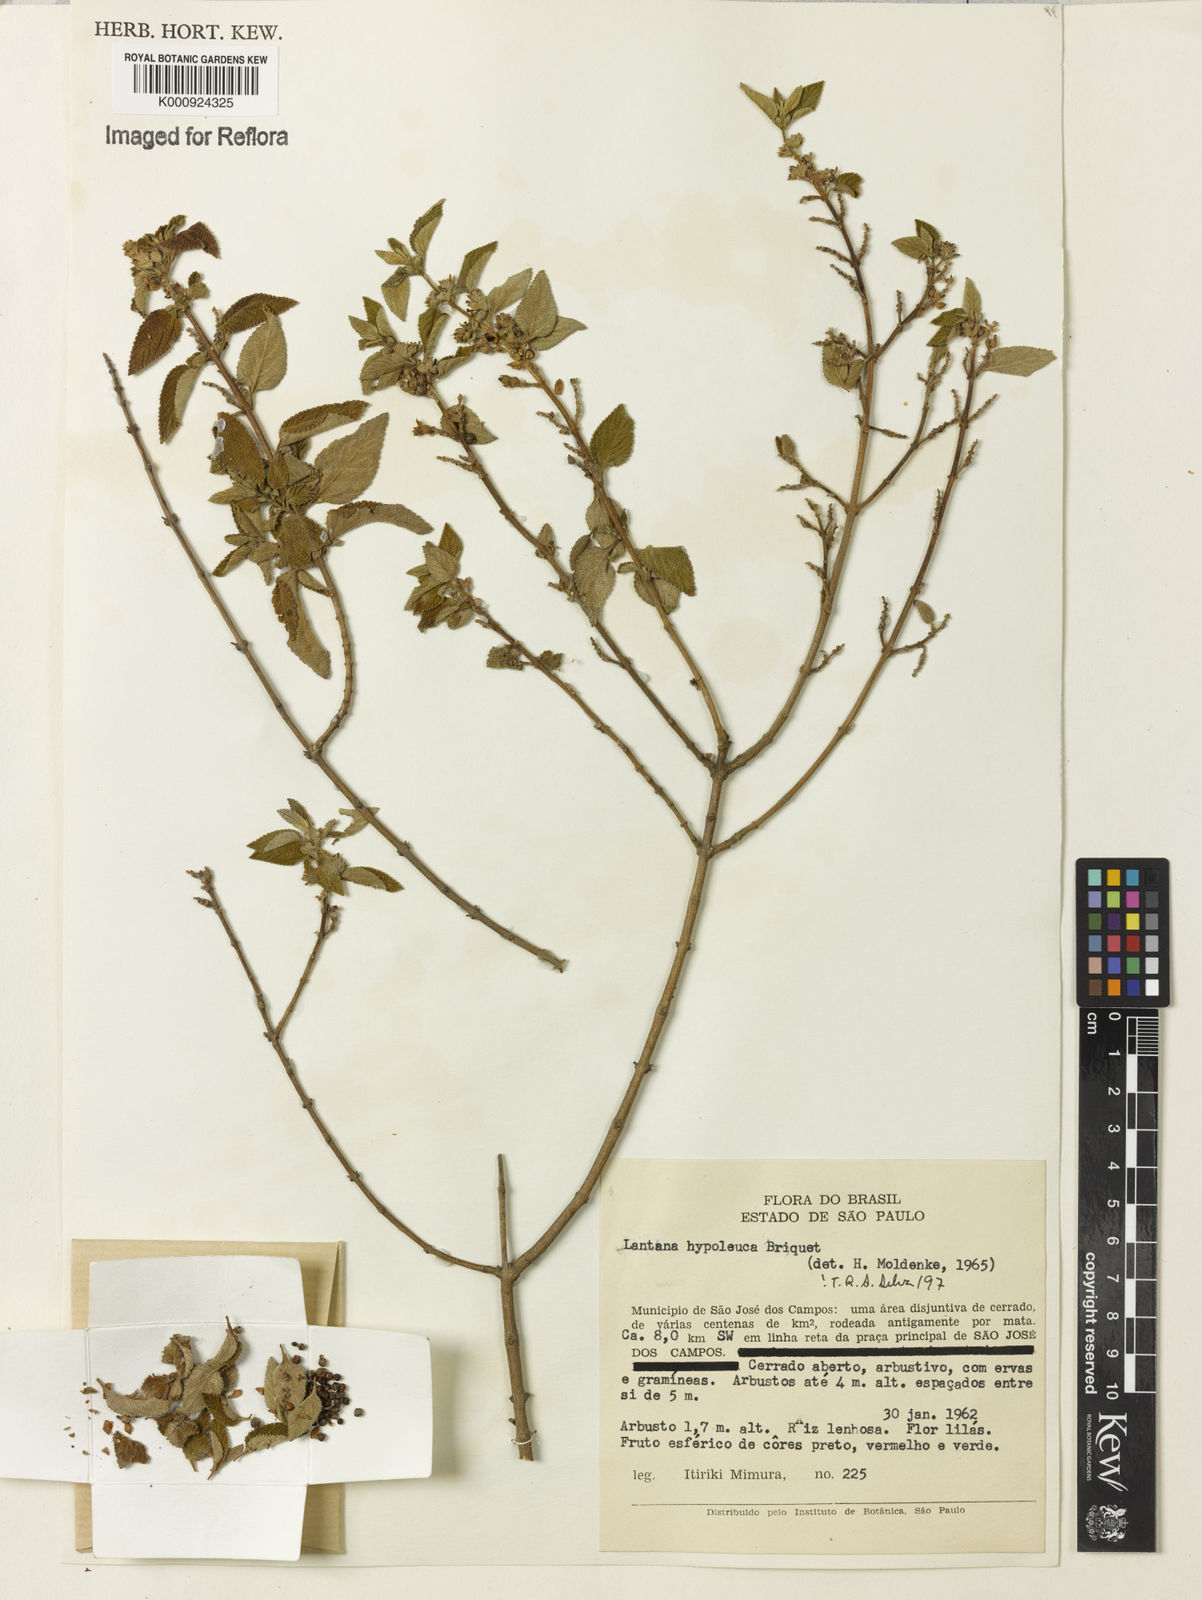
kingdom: Plantae
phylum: Tracheophyta
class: Magnoliopsida
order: Lamiales
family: Verbenaceae
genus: Lantana
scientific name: Lantana hypoleuca
